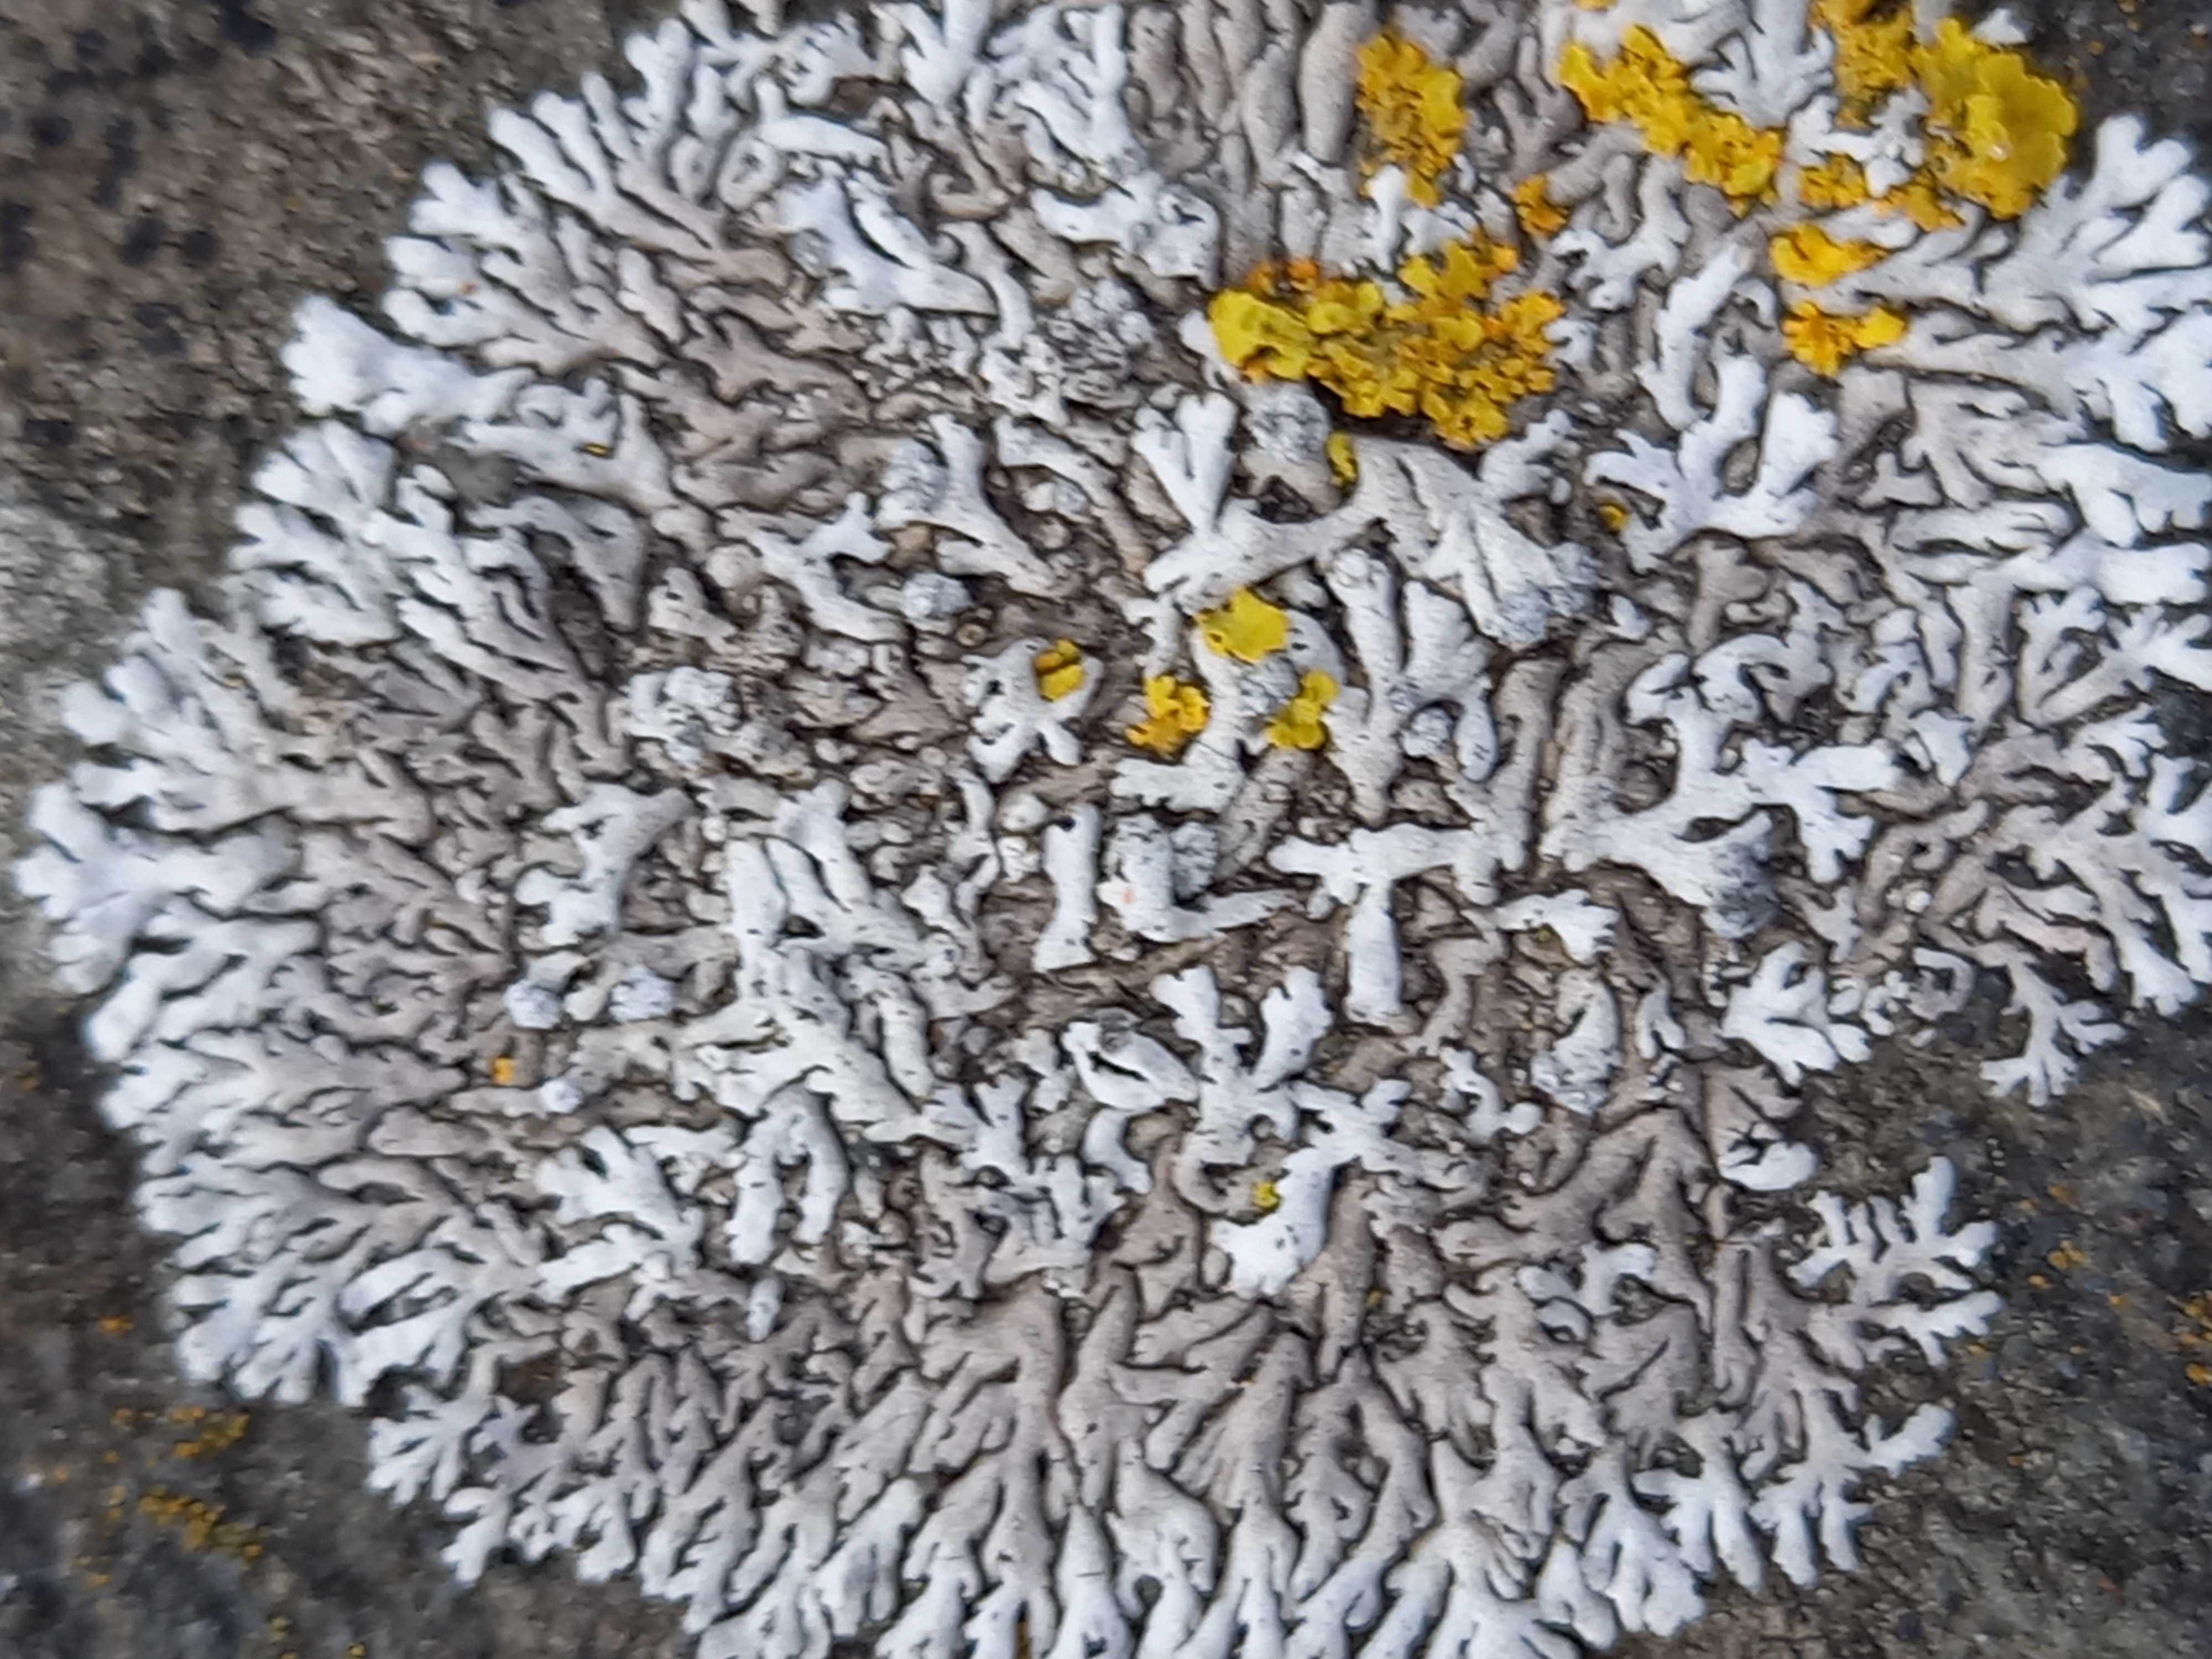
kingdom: Fungi
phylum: Ascomycota
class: Lecanoromycetes
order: Caliciales
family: Physciaceae
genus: Physcia
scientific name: Physcia caesia
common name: blågrå rosetlav
